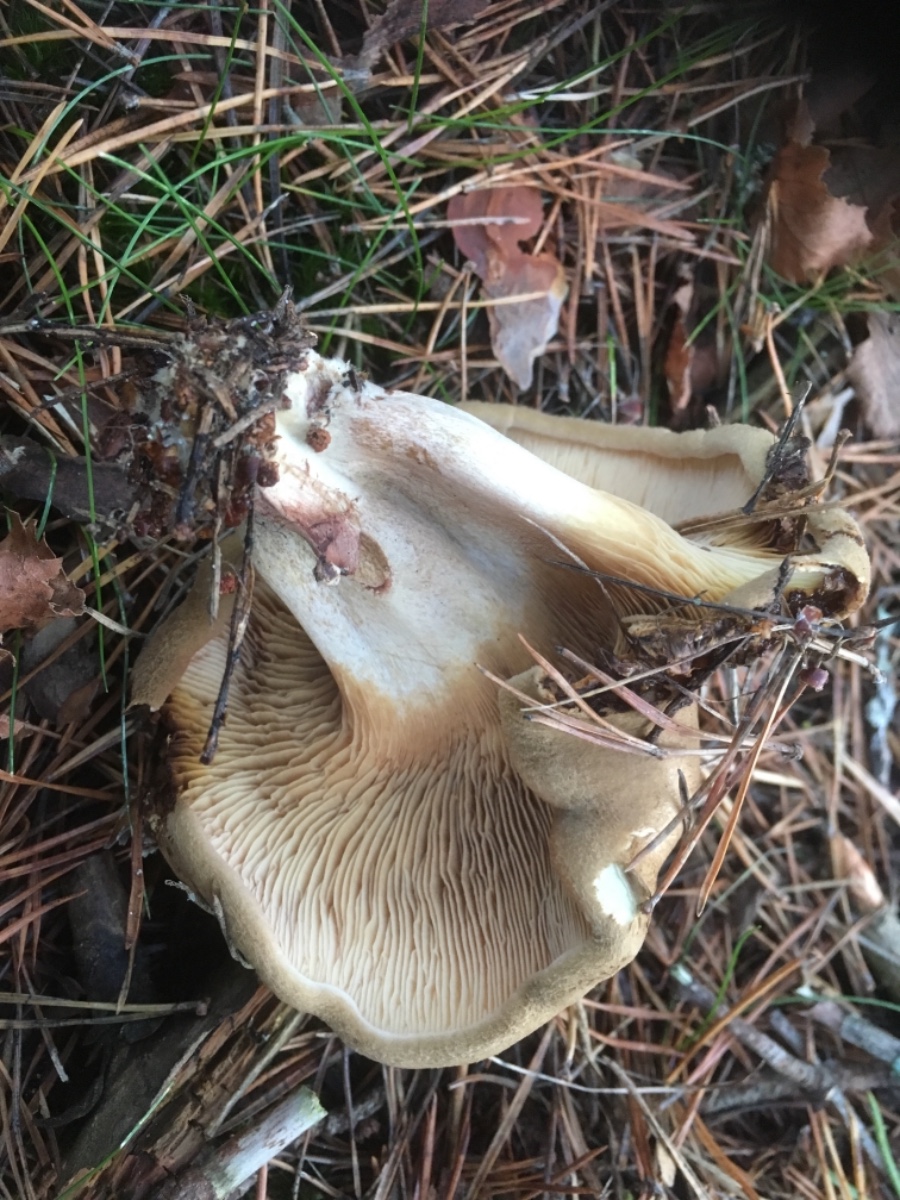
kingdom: Fungi
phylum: Basidiomycota
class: Agaricomycetes
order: Boletales
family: Paxillaceae
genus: Paxillus
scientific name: Paxillus involutus
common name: almindelig netbladhat
